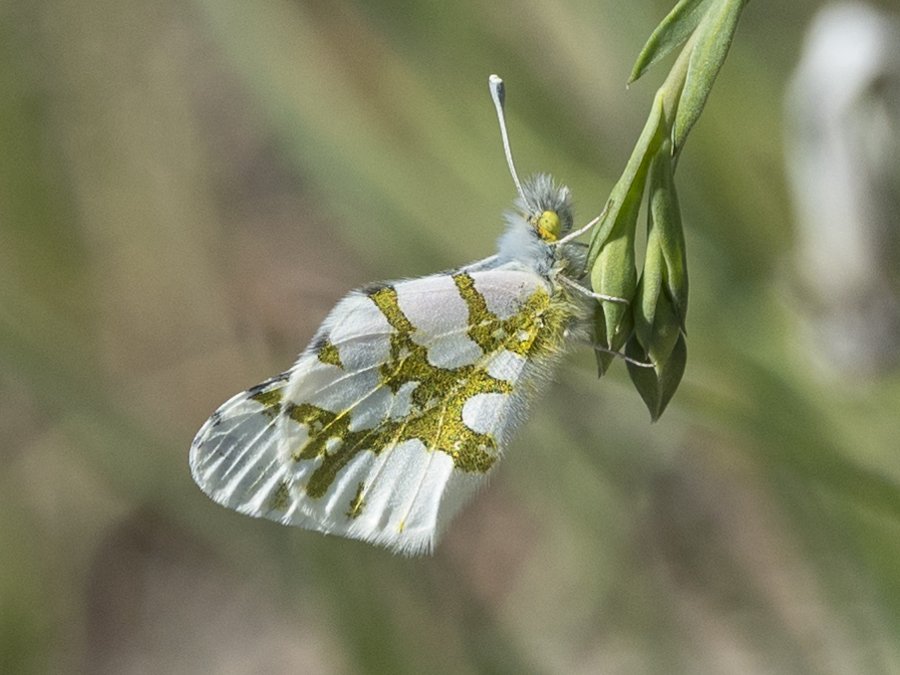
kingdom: Animalia
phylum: Arthropoda
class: Insecta
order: Lepidoptera
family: Pieridae
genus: Euchloe
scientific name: Euchloe olympia
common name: Olympia Marble
